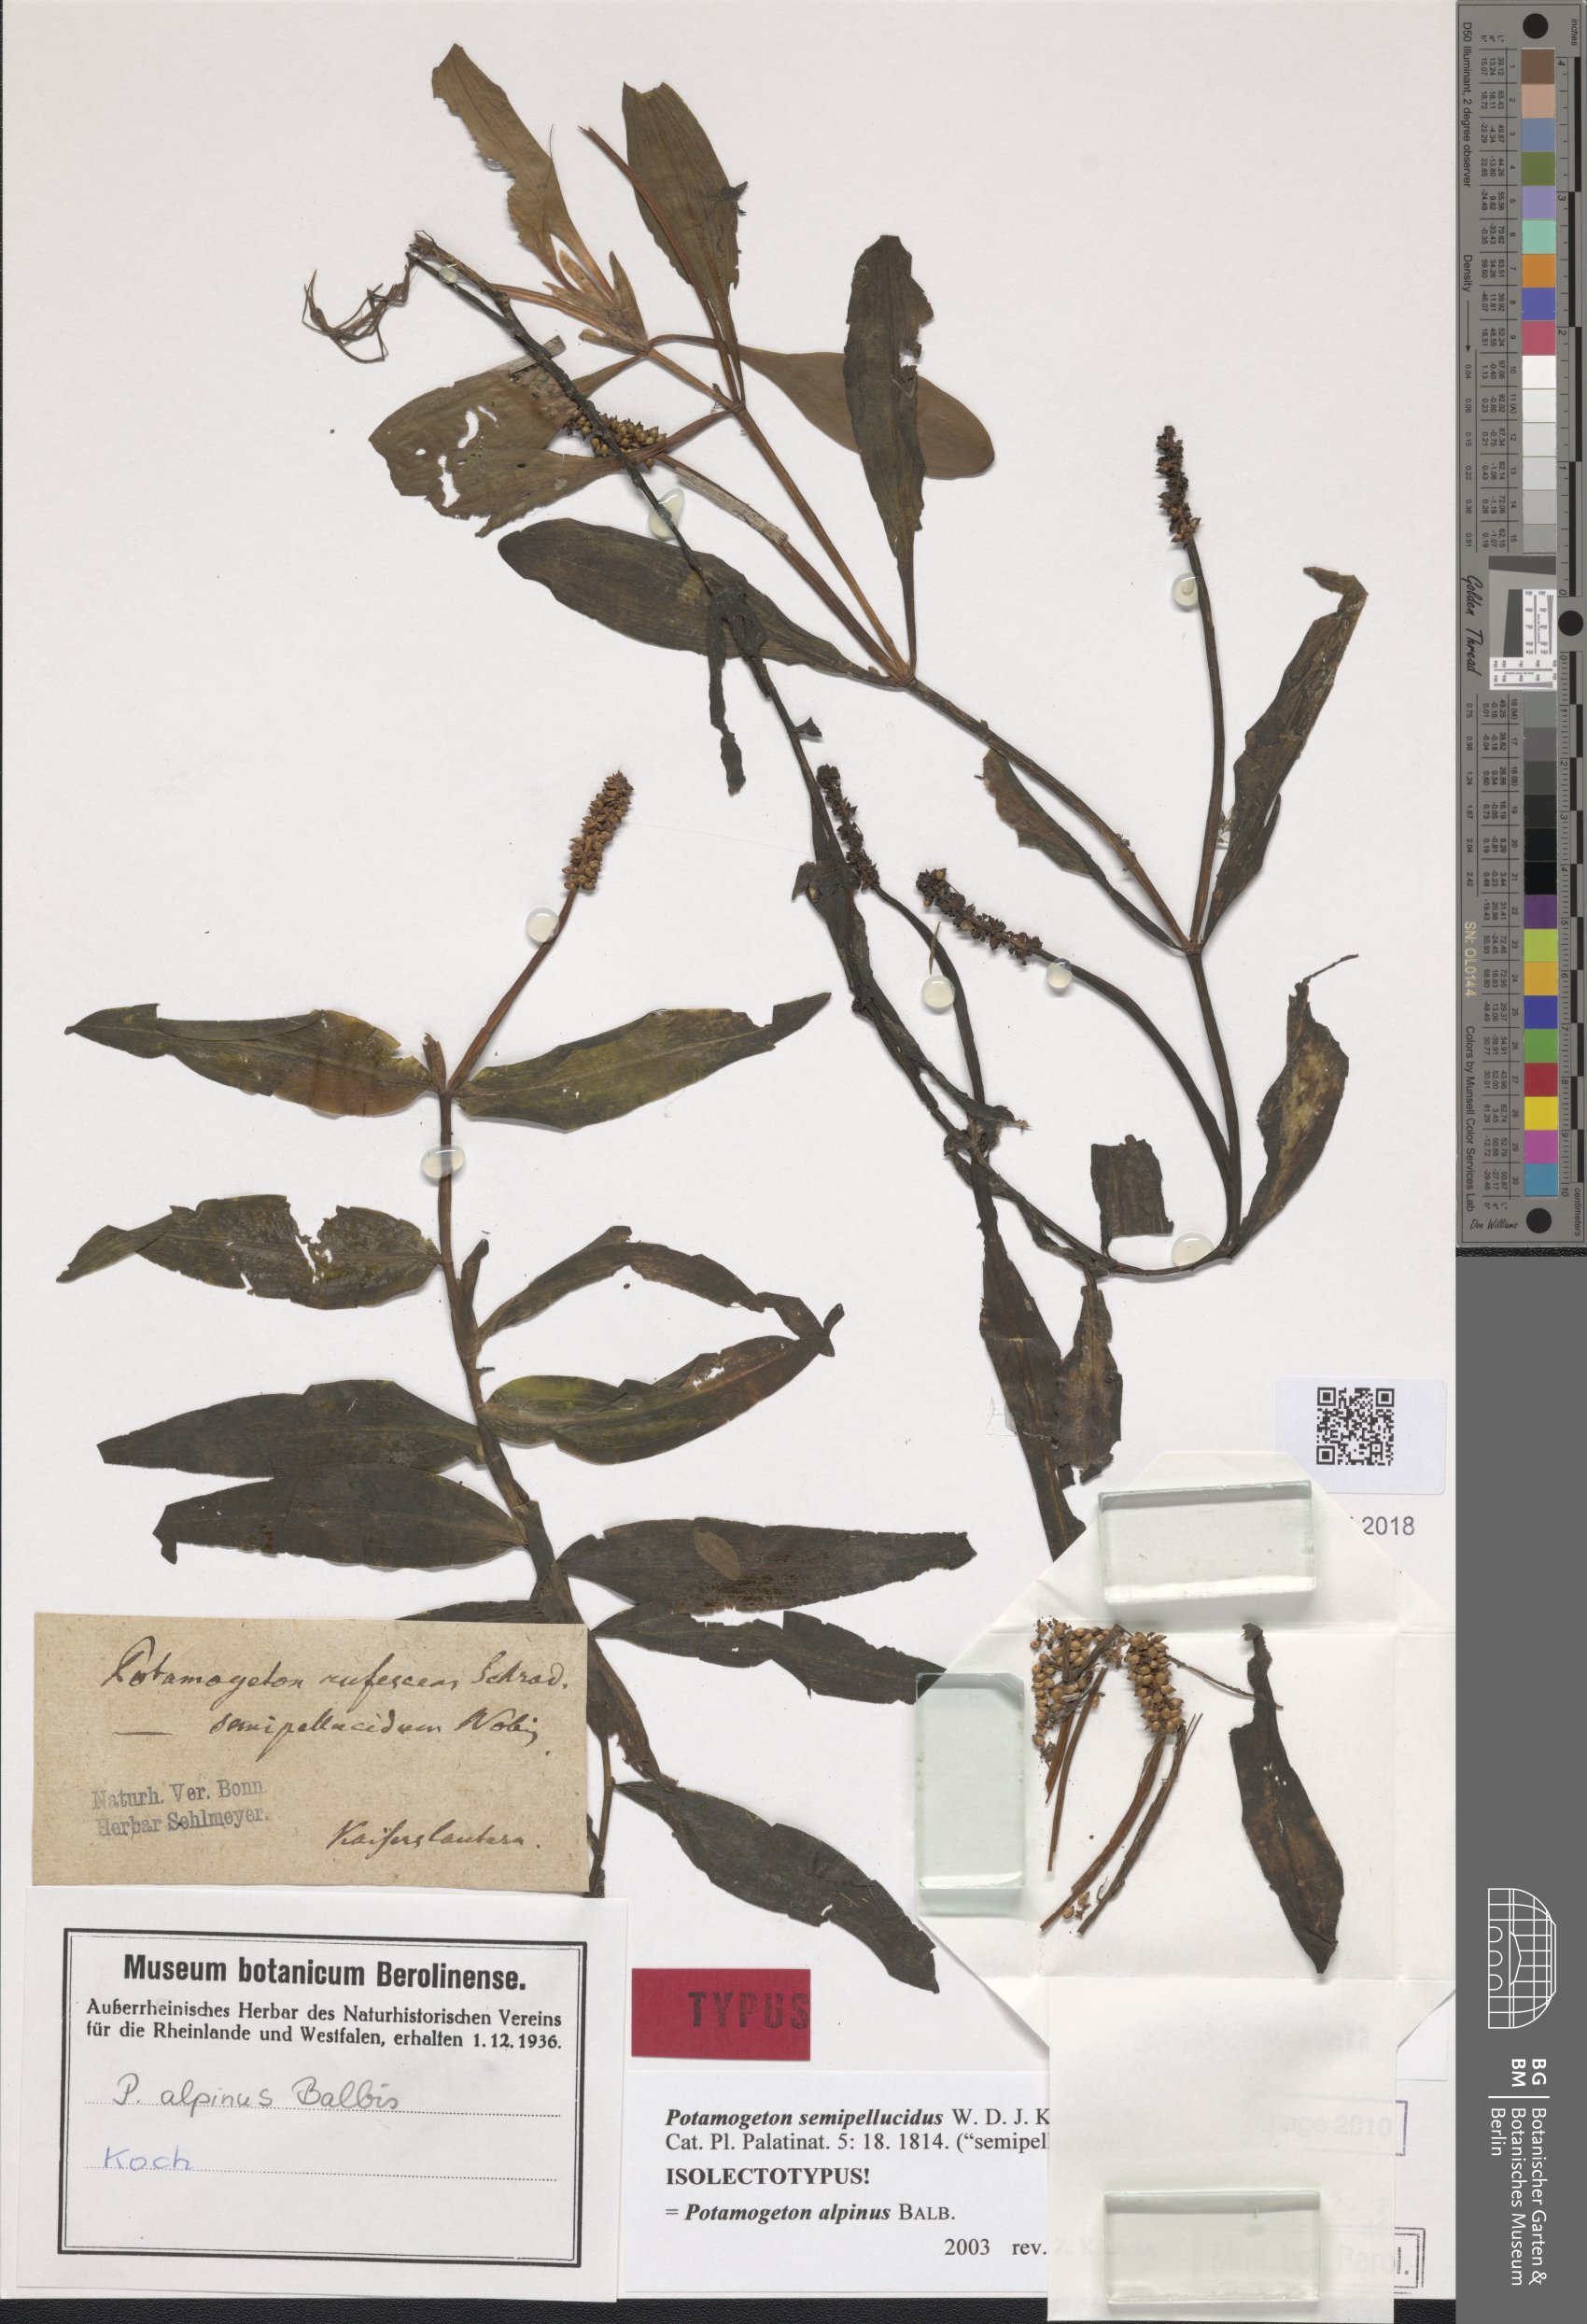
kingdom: Plantae
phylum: Tracheophyta
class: Liliopsida
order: Alismatales
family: Potamogetonaceae
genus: Potamogeton
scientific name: Potamogeton alpinus
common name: Red pondweed
